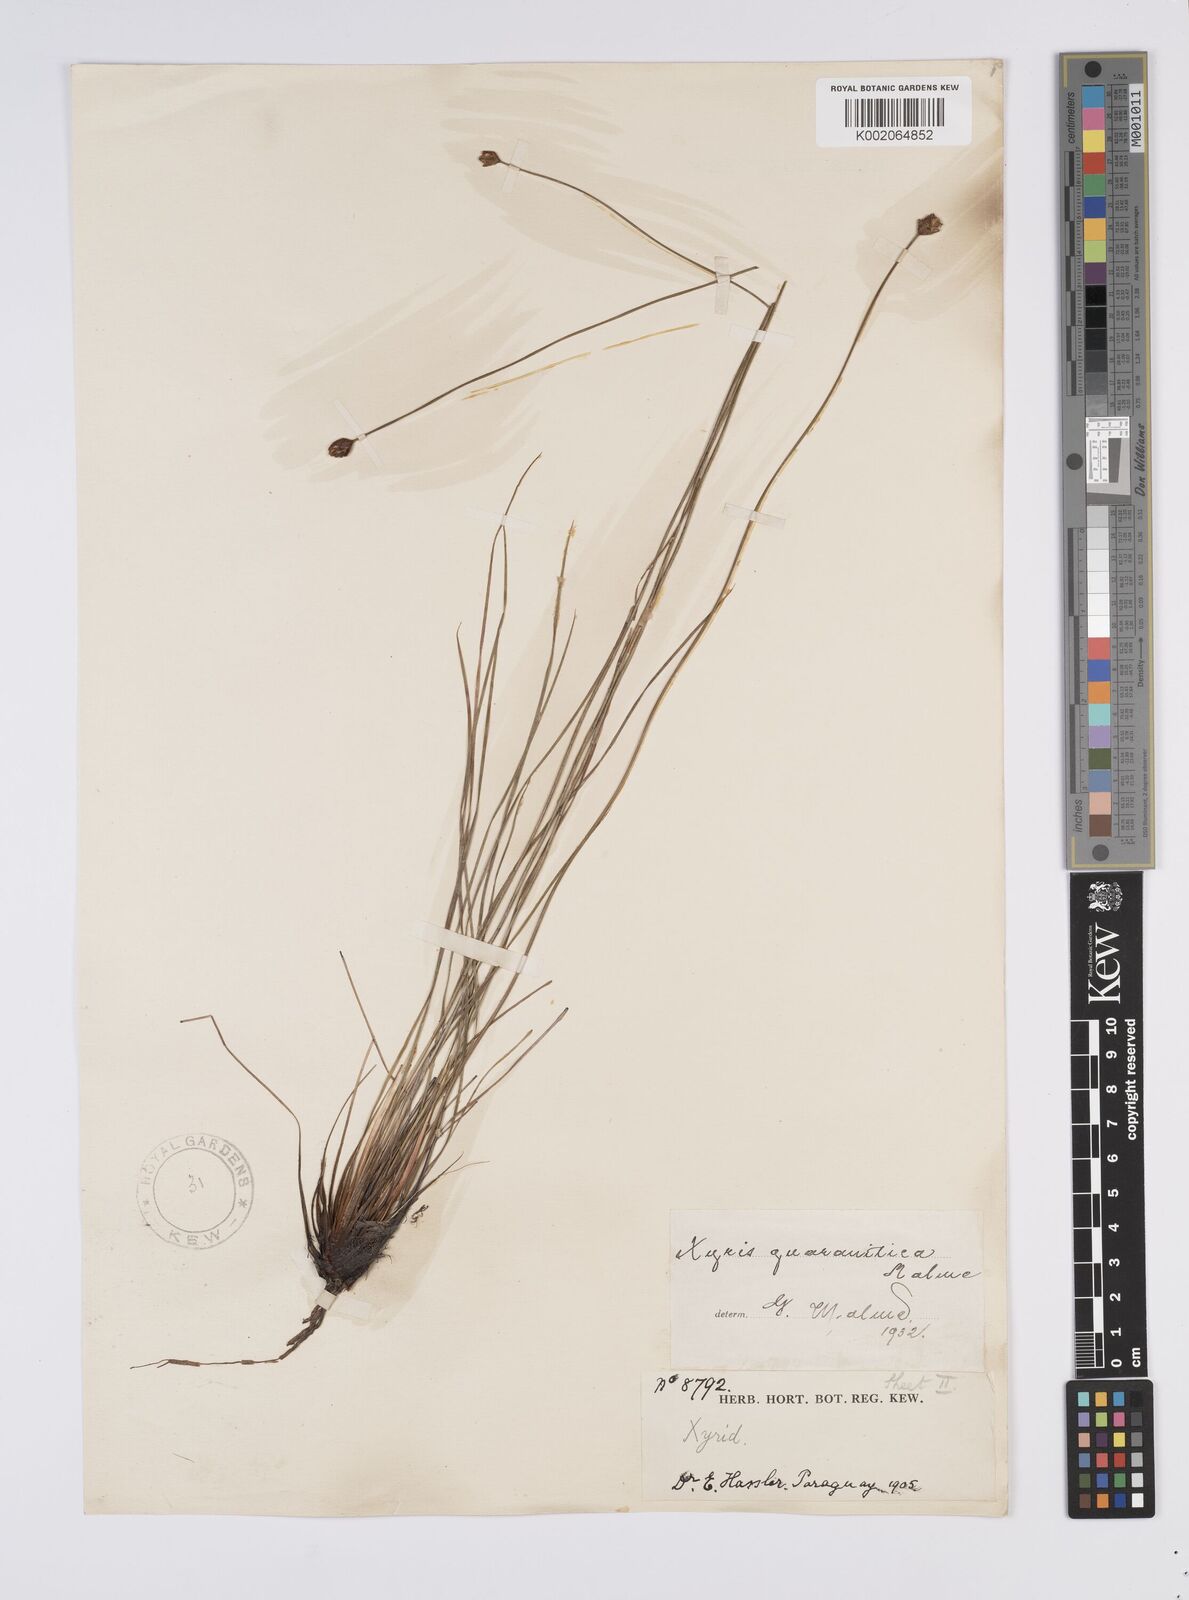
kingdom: Plantae
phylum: Tracheophyta
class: Liliopsida
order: Poales
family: Xyridaceae
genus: Xyris
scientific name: Xyris guaranitica
